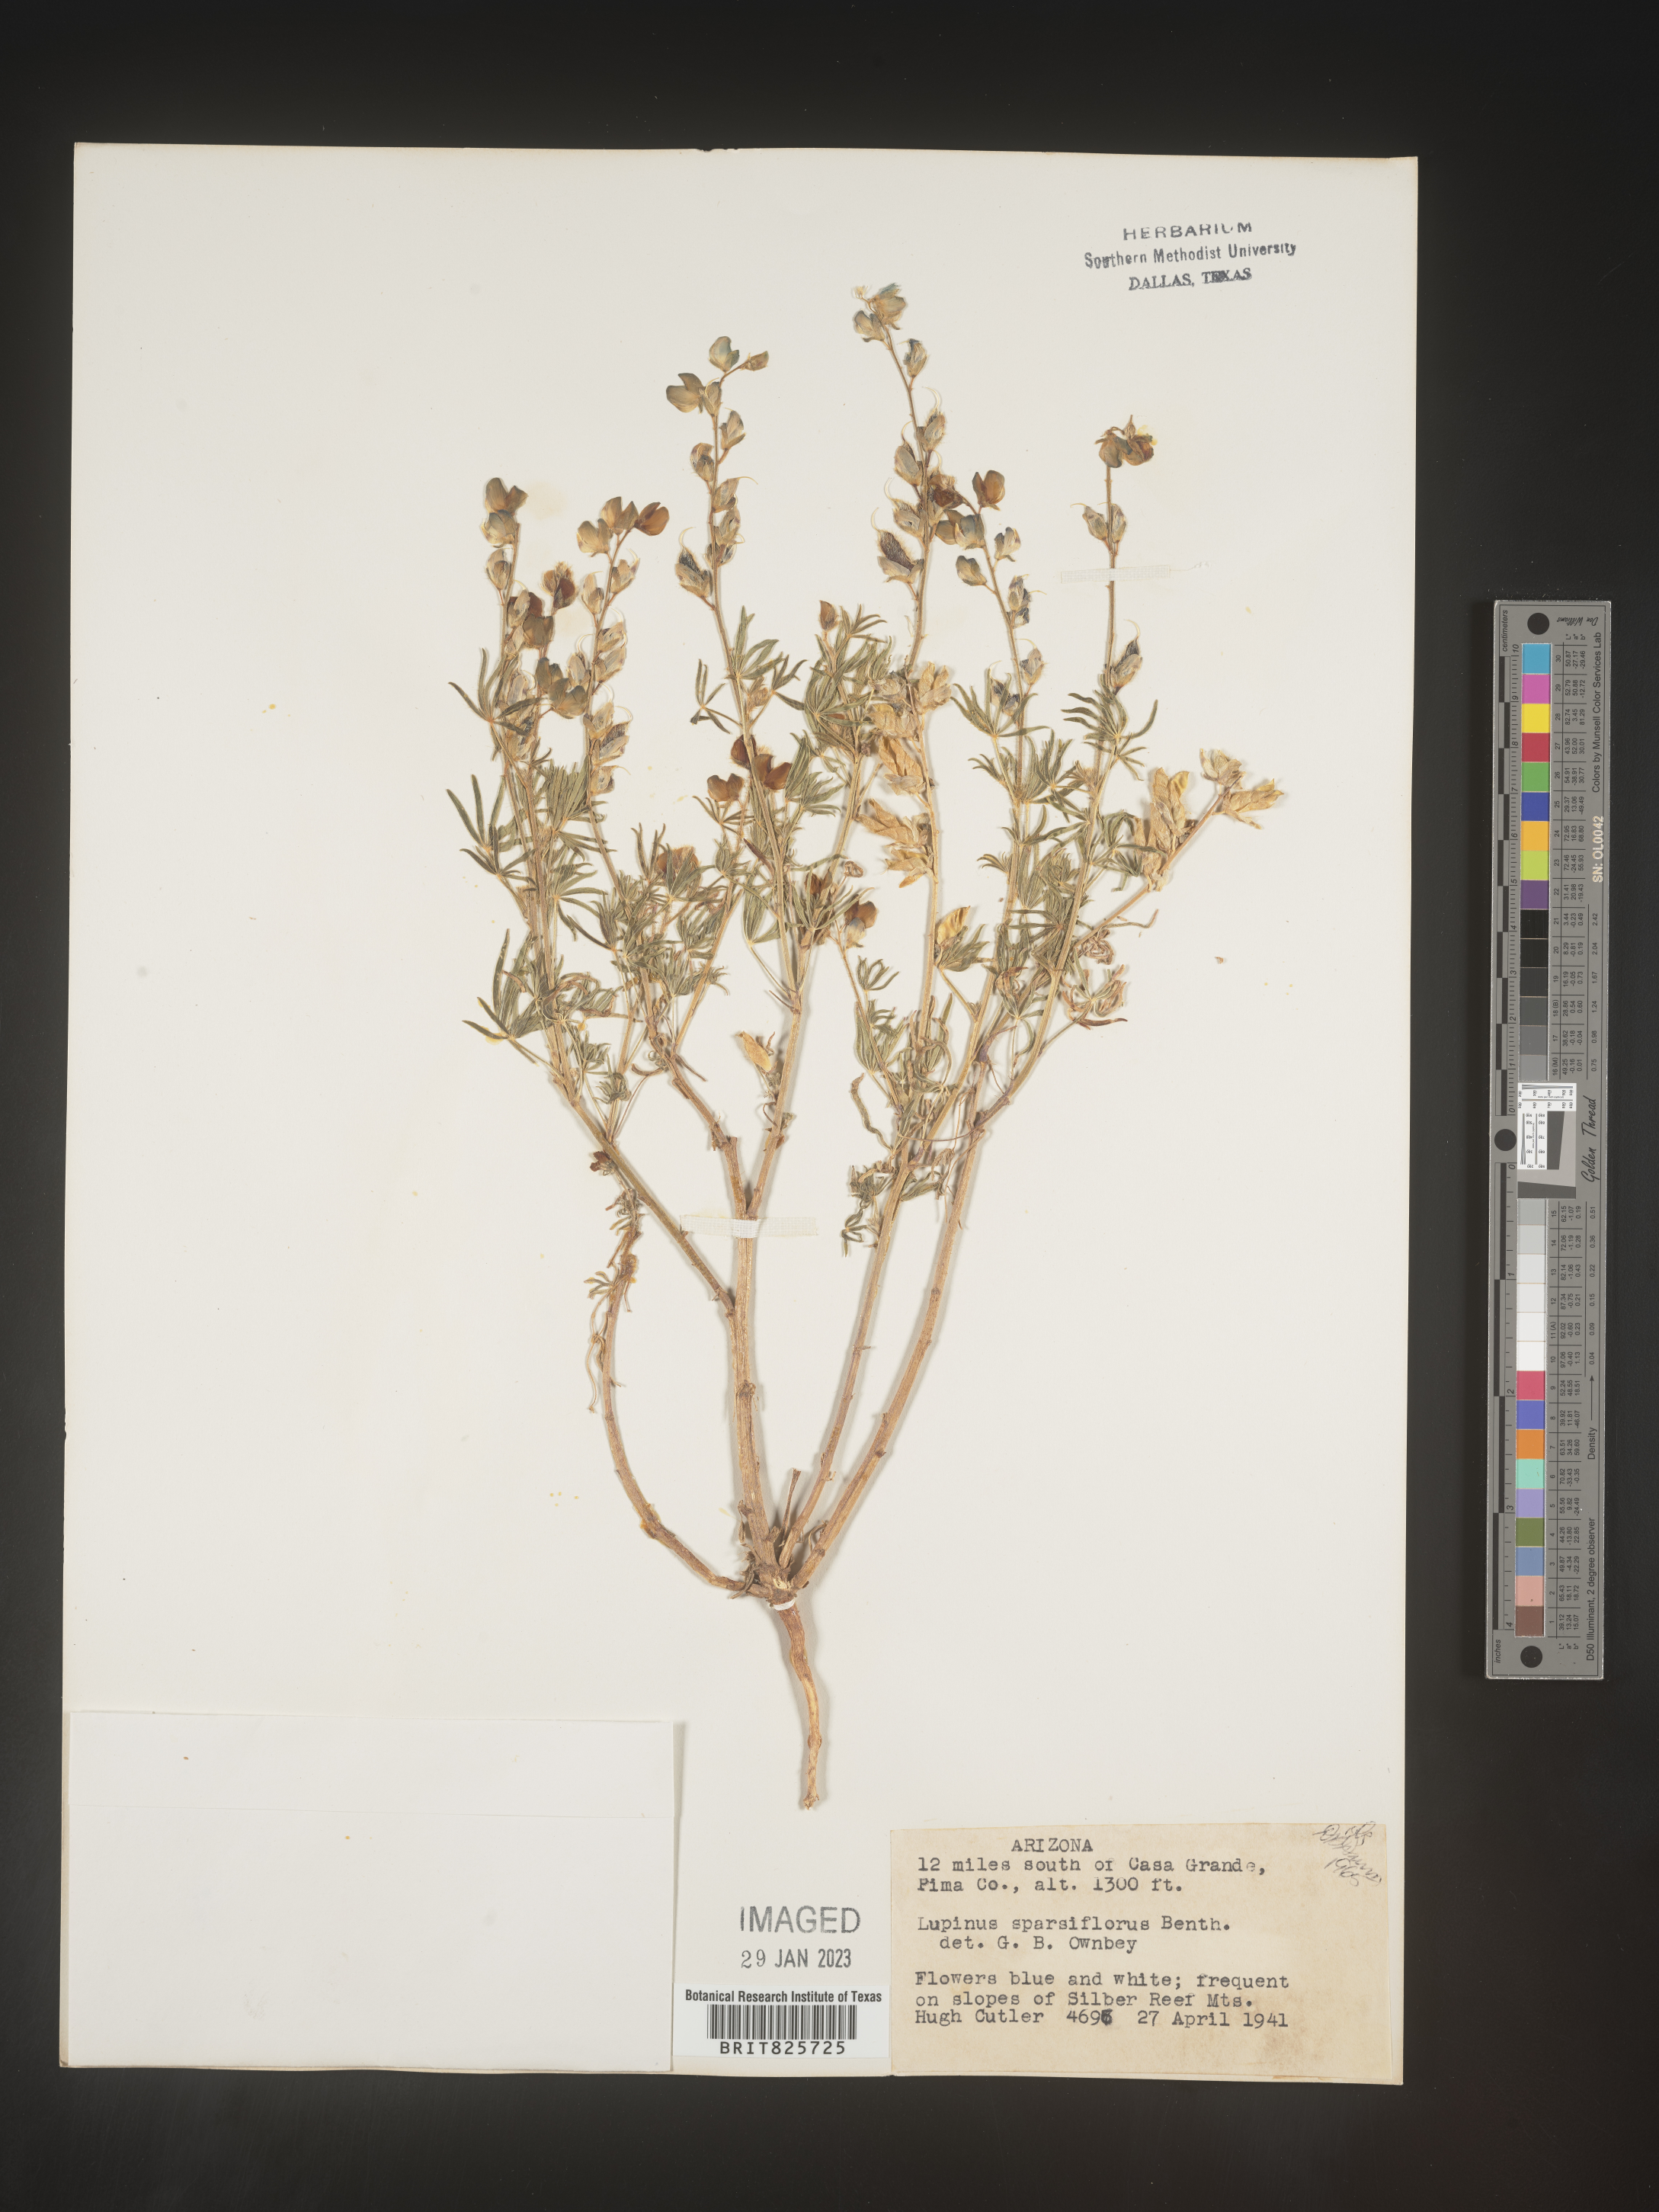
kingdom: Plantae
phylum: Tracheophyta
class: Magnoliopsida
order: Fabales
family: Fabaceae
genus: Lupinus
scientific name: Lupinus
